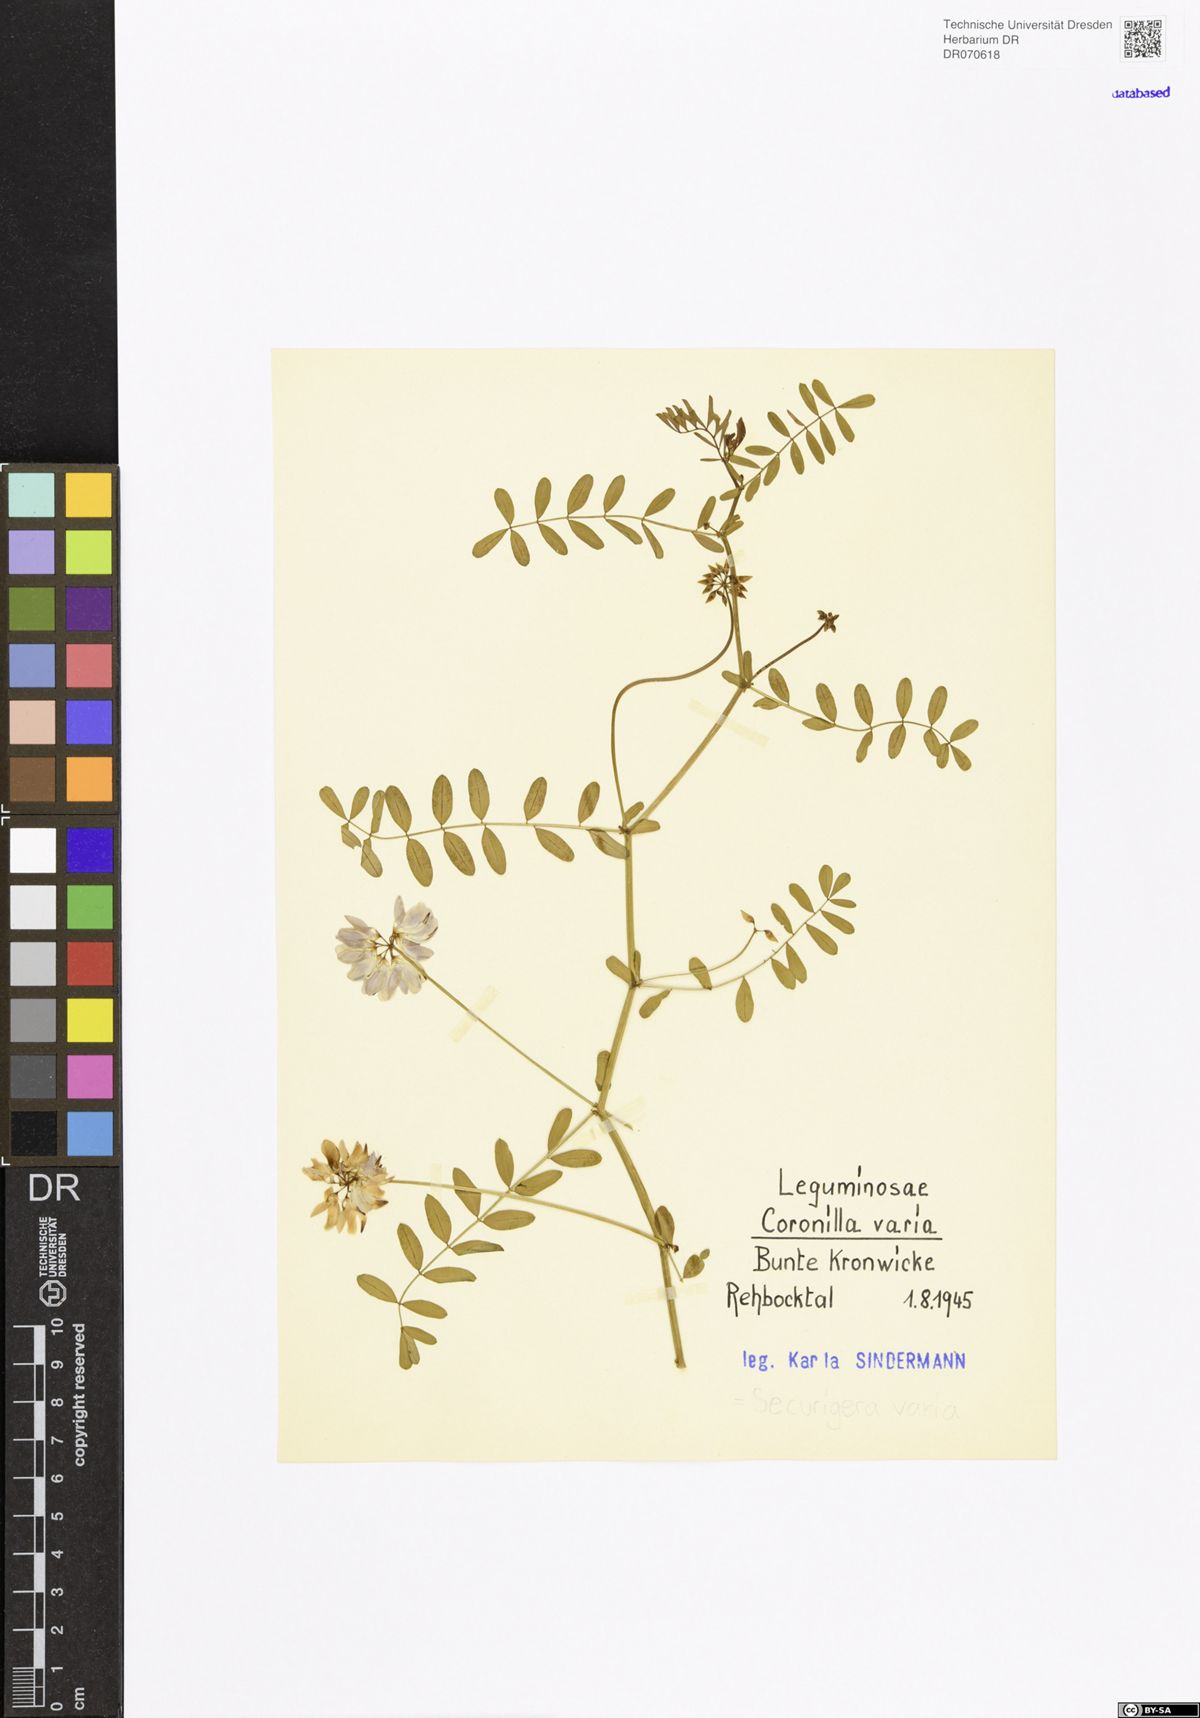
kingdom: Plantae
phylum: Tracheophyta
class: Magnoliopsida
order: Fabales
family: Fabaceae
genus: Coronilla
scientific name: Coronilla varia
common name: Crownvetch
